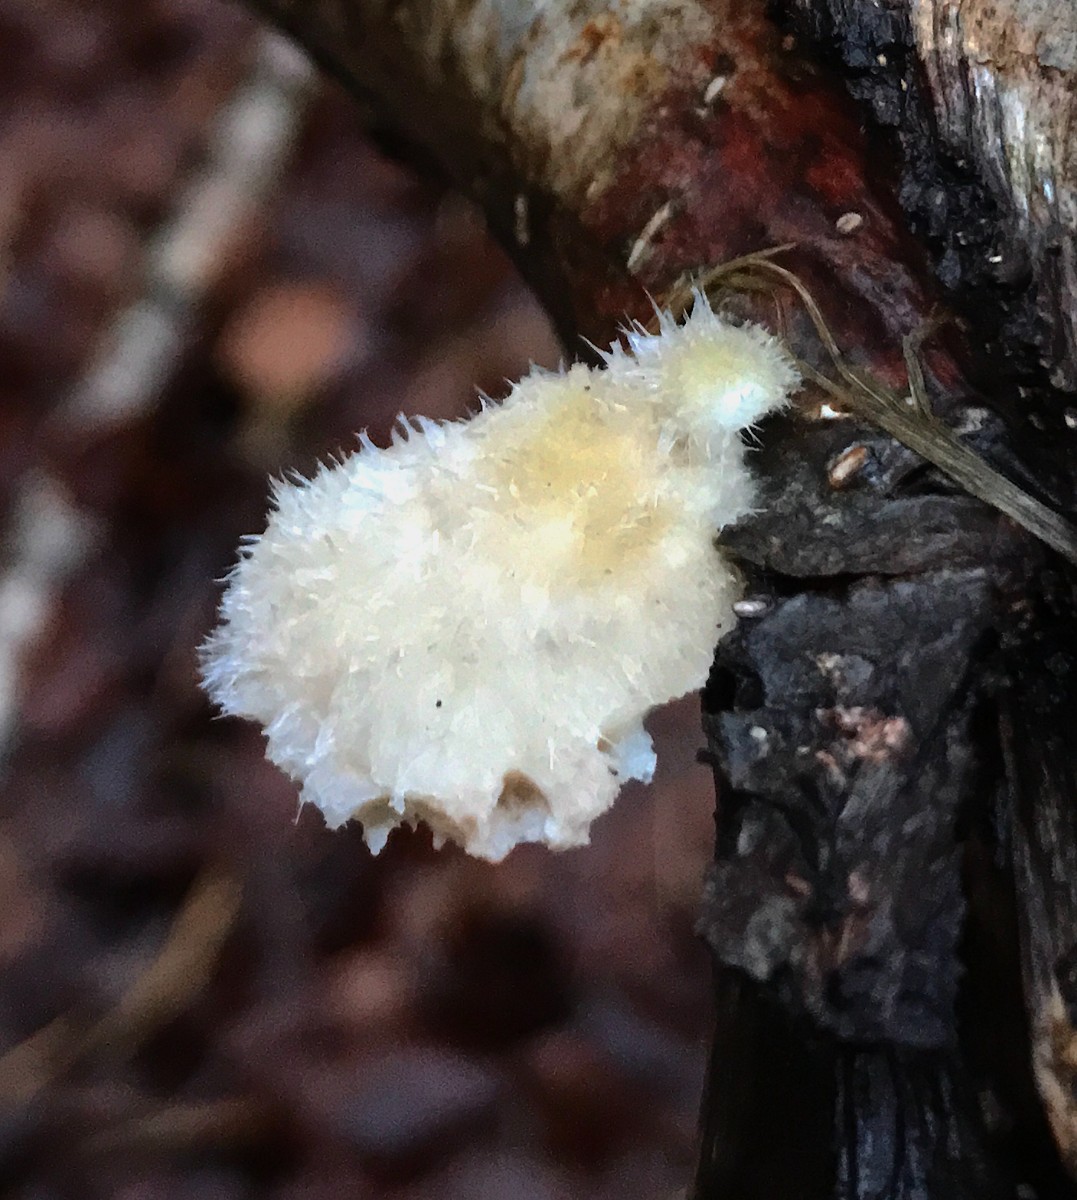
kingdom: Fungi
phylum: Basidiomycota
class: Agaricomycetes
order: Polyporales
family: Polyporaceae
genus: Trametes
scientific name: Trametes hirsuta
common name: håret læderporesvamp
